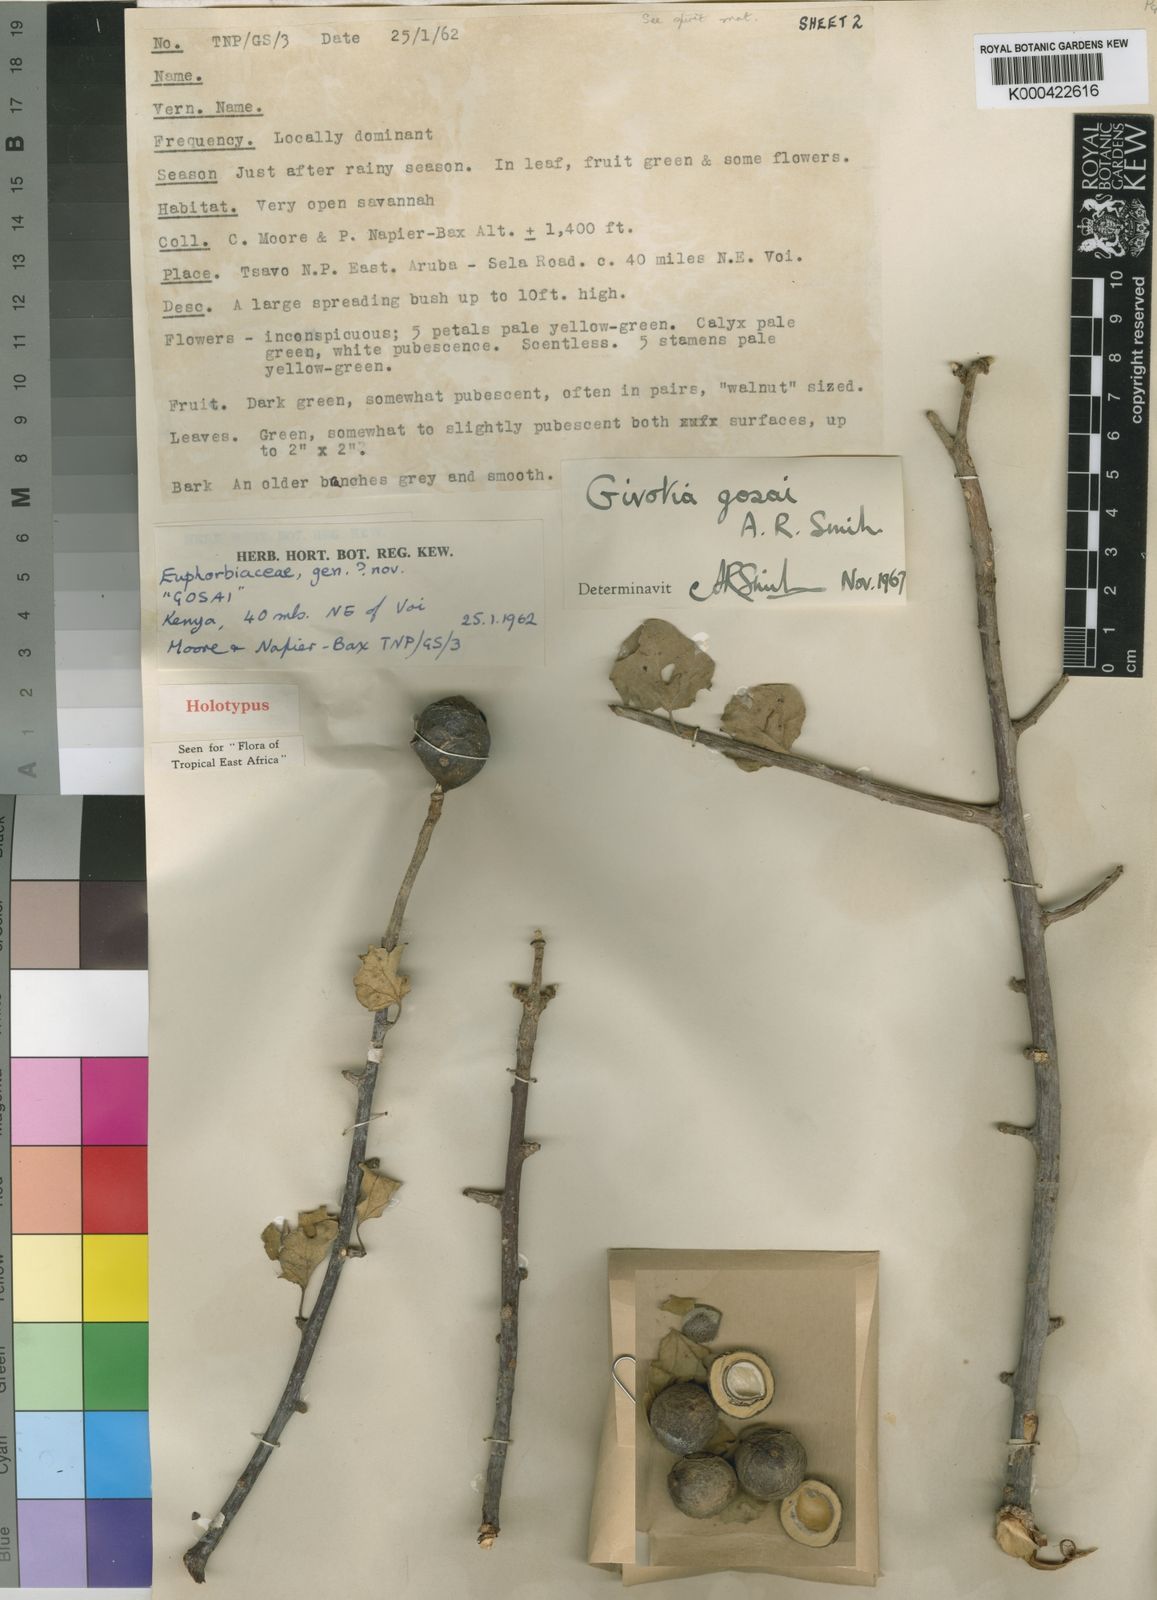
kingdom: Plantae
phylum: Tracheophyta
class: Magnoliopsida
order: Malpighiales
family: Euphorbiaceae
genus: Givotia
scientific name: Givotia gosai
